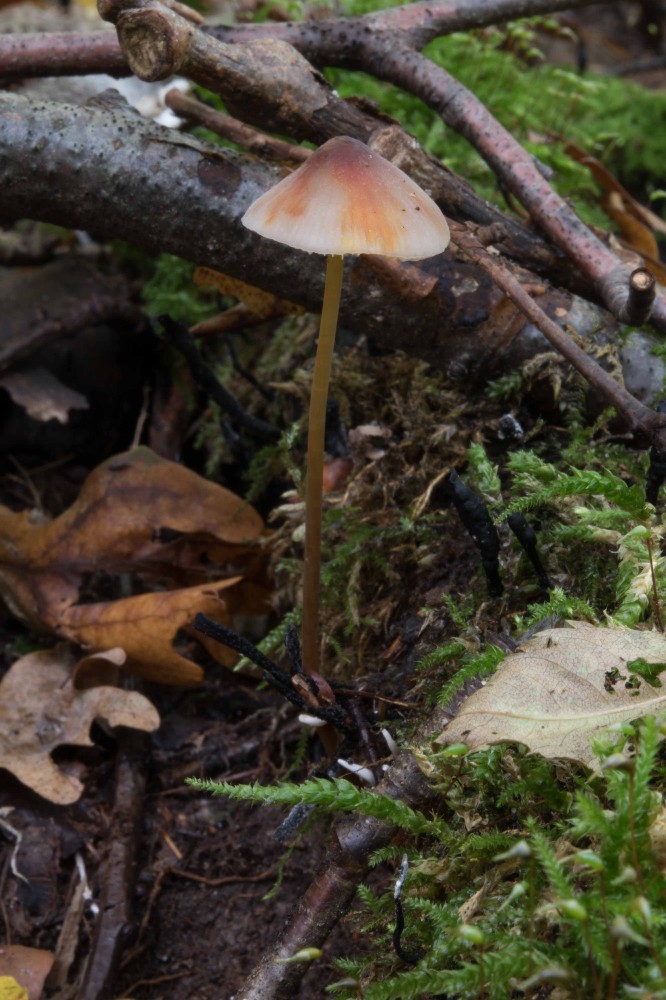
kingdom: Fungi
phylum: Basidiomycota
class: Agaricomycetes
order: Agaricales
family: Mycenaceae
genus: Mycena
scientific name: Mycena crocata
